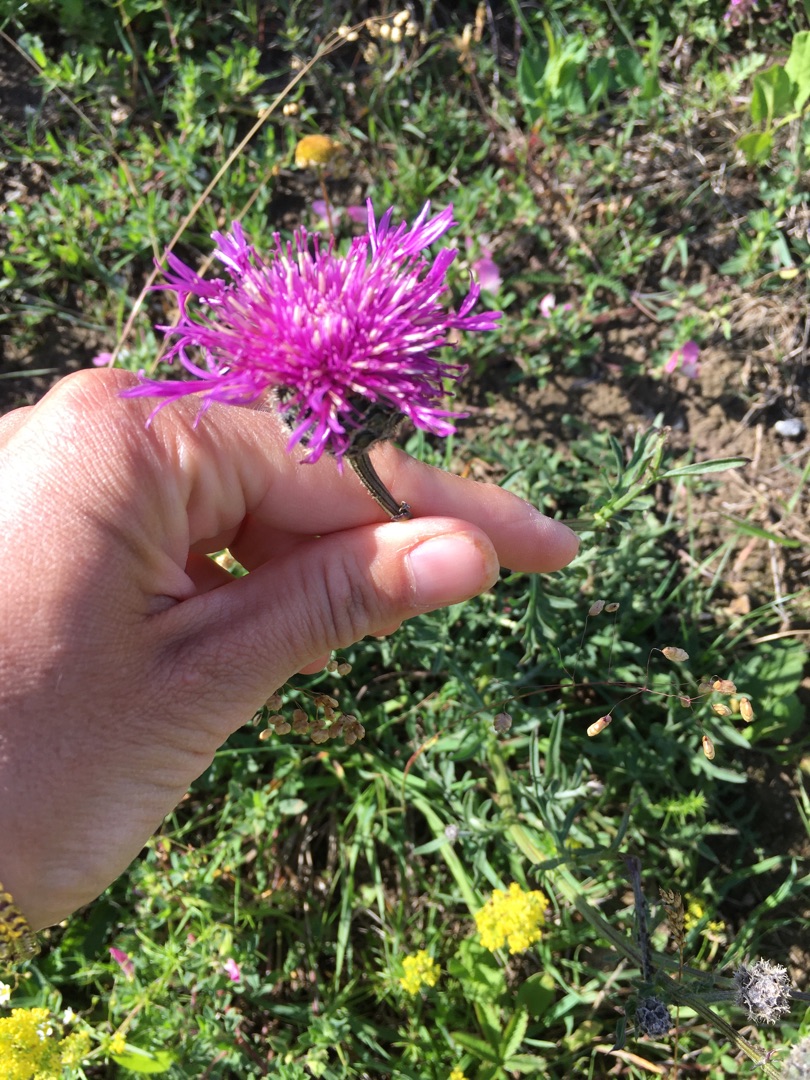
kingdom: Plantae
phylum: Tracheophyta
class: Magnoliopsida
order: Asterales
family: Asteraceae
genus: Centaurea
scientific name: Centaurea scabiosa
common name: Stor knopurt
